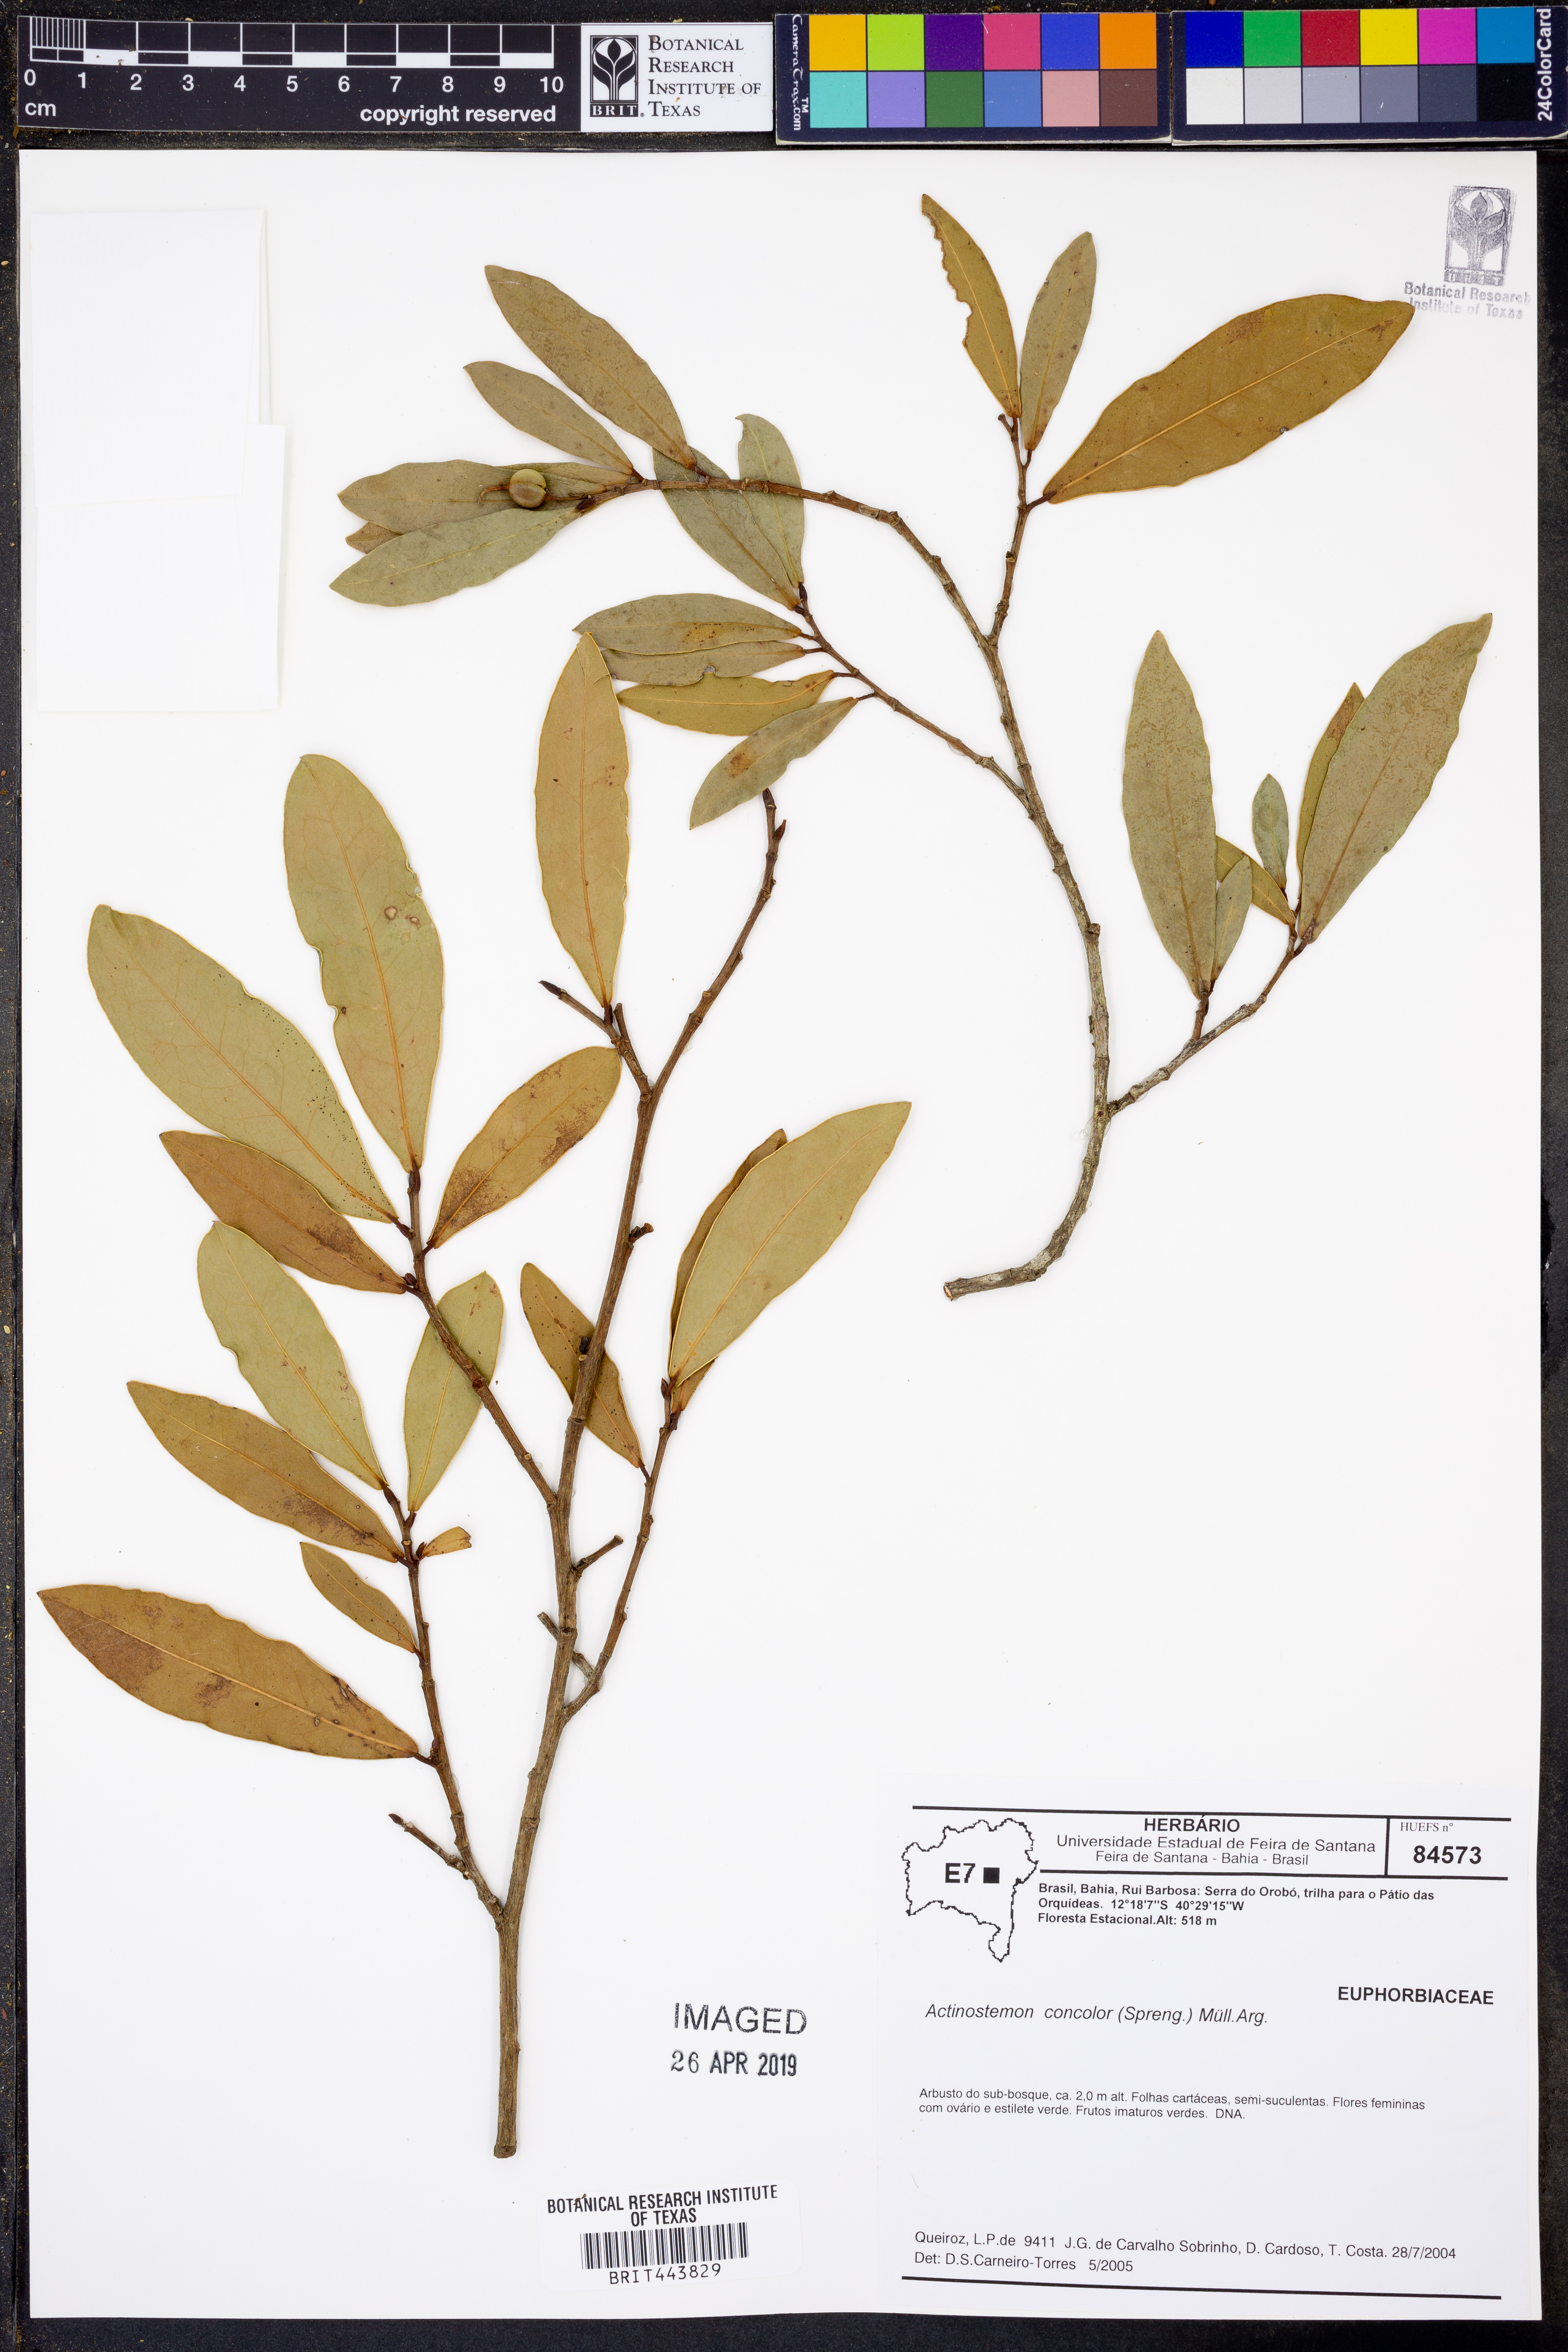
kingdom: Plantae
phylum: Tracheophyta
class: Magnoliopsida
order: Malpighiales
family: Euphorbiaceae
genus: Actinostemon
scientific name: Actinostemon concolor
